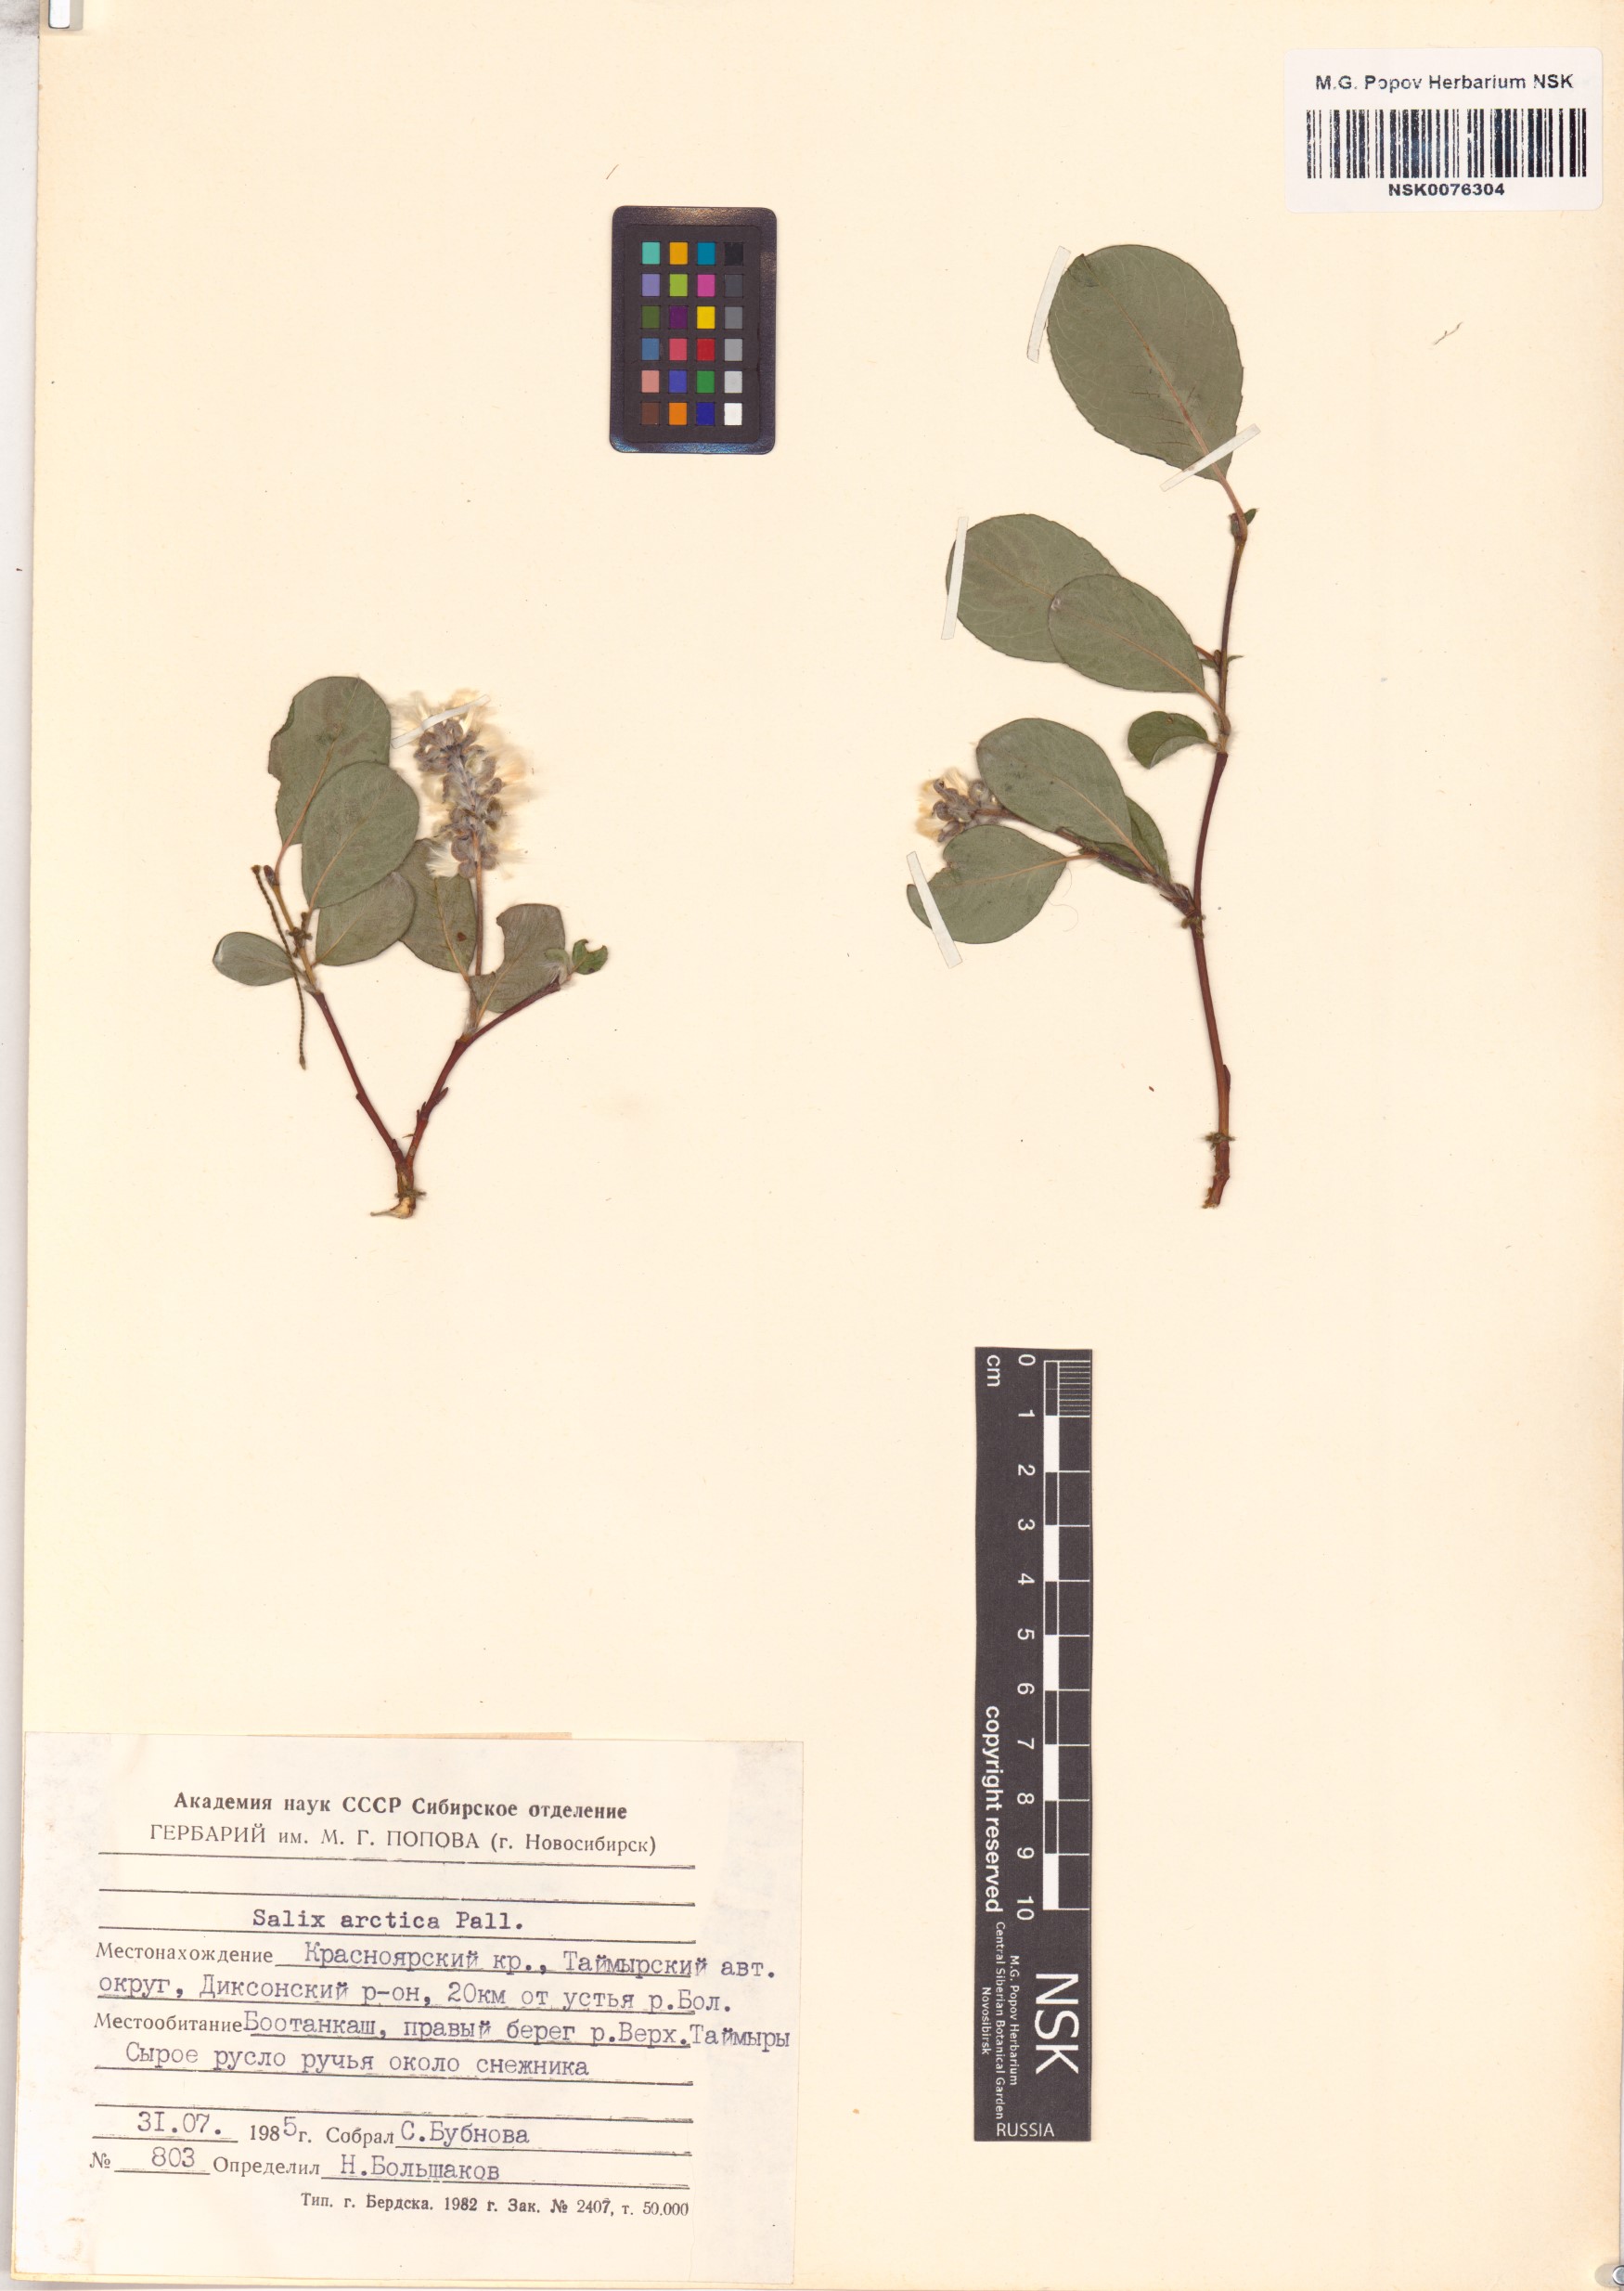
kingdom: Plantae
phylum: Tracheophyta
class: Magnoliopsida
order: Malpighiales
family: Salicaceae
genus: Salix
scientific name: Salix arctica
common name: Arctic willow
